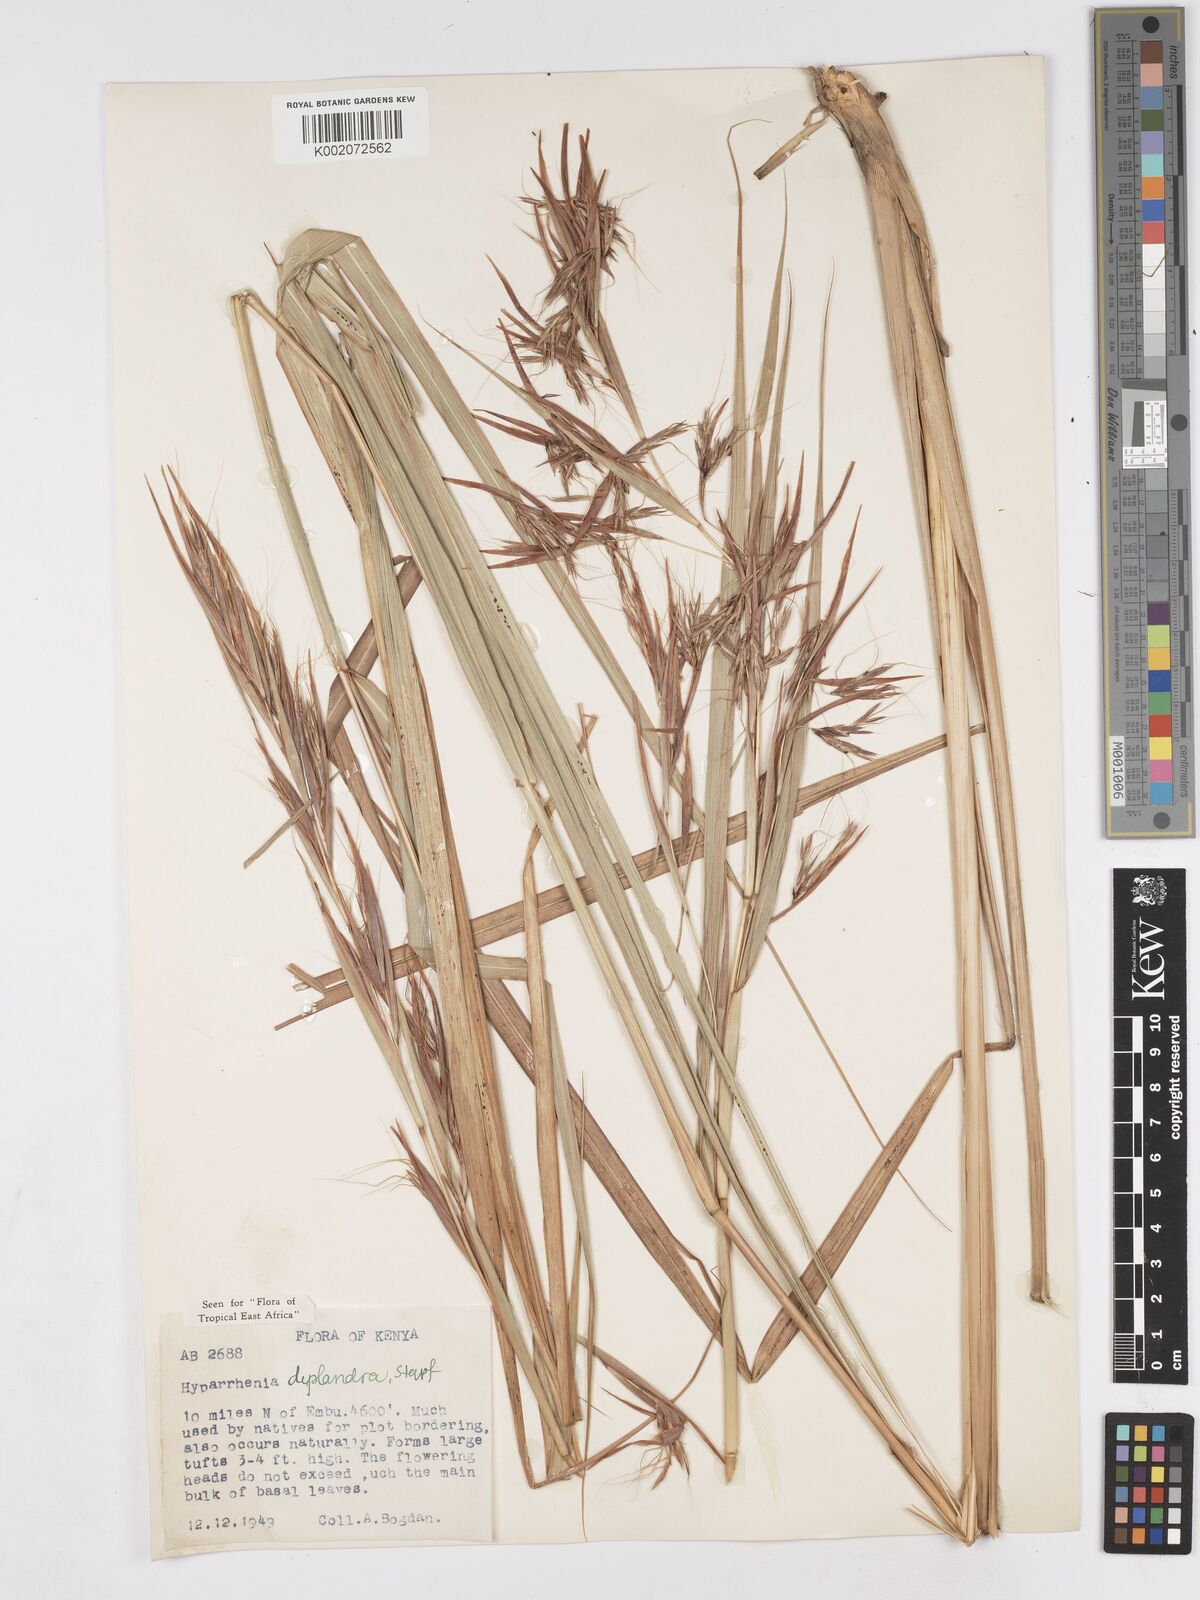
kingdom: Plantae
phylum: Tracheophyta
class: Liliopsida
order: Poales
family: Poaceae
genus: Hyparrhenia
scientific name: Hyparrhenia diplandra
